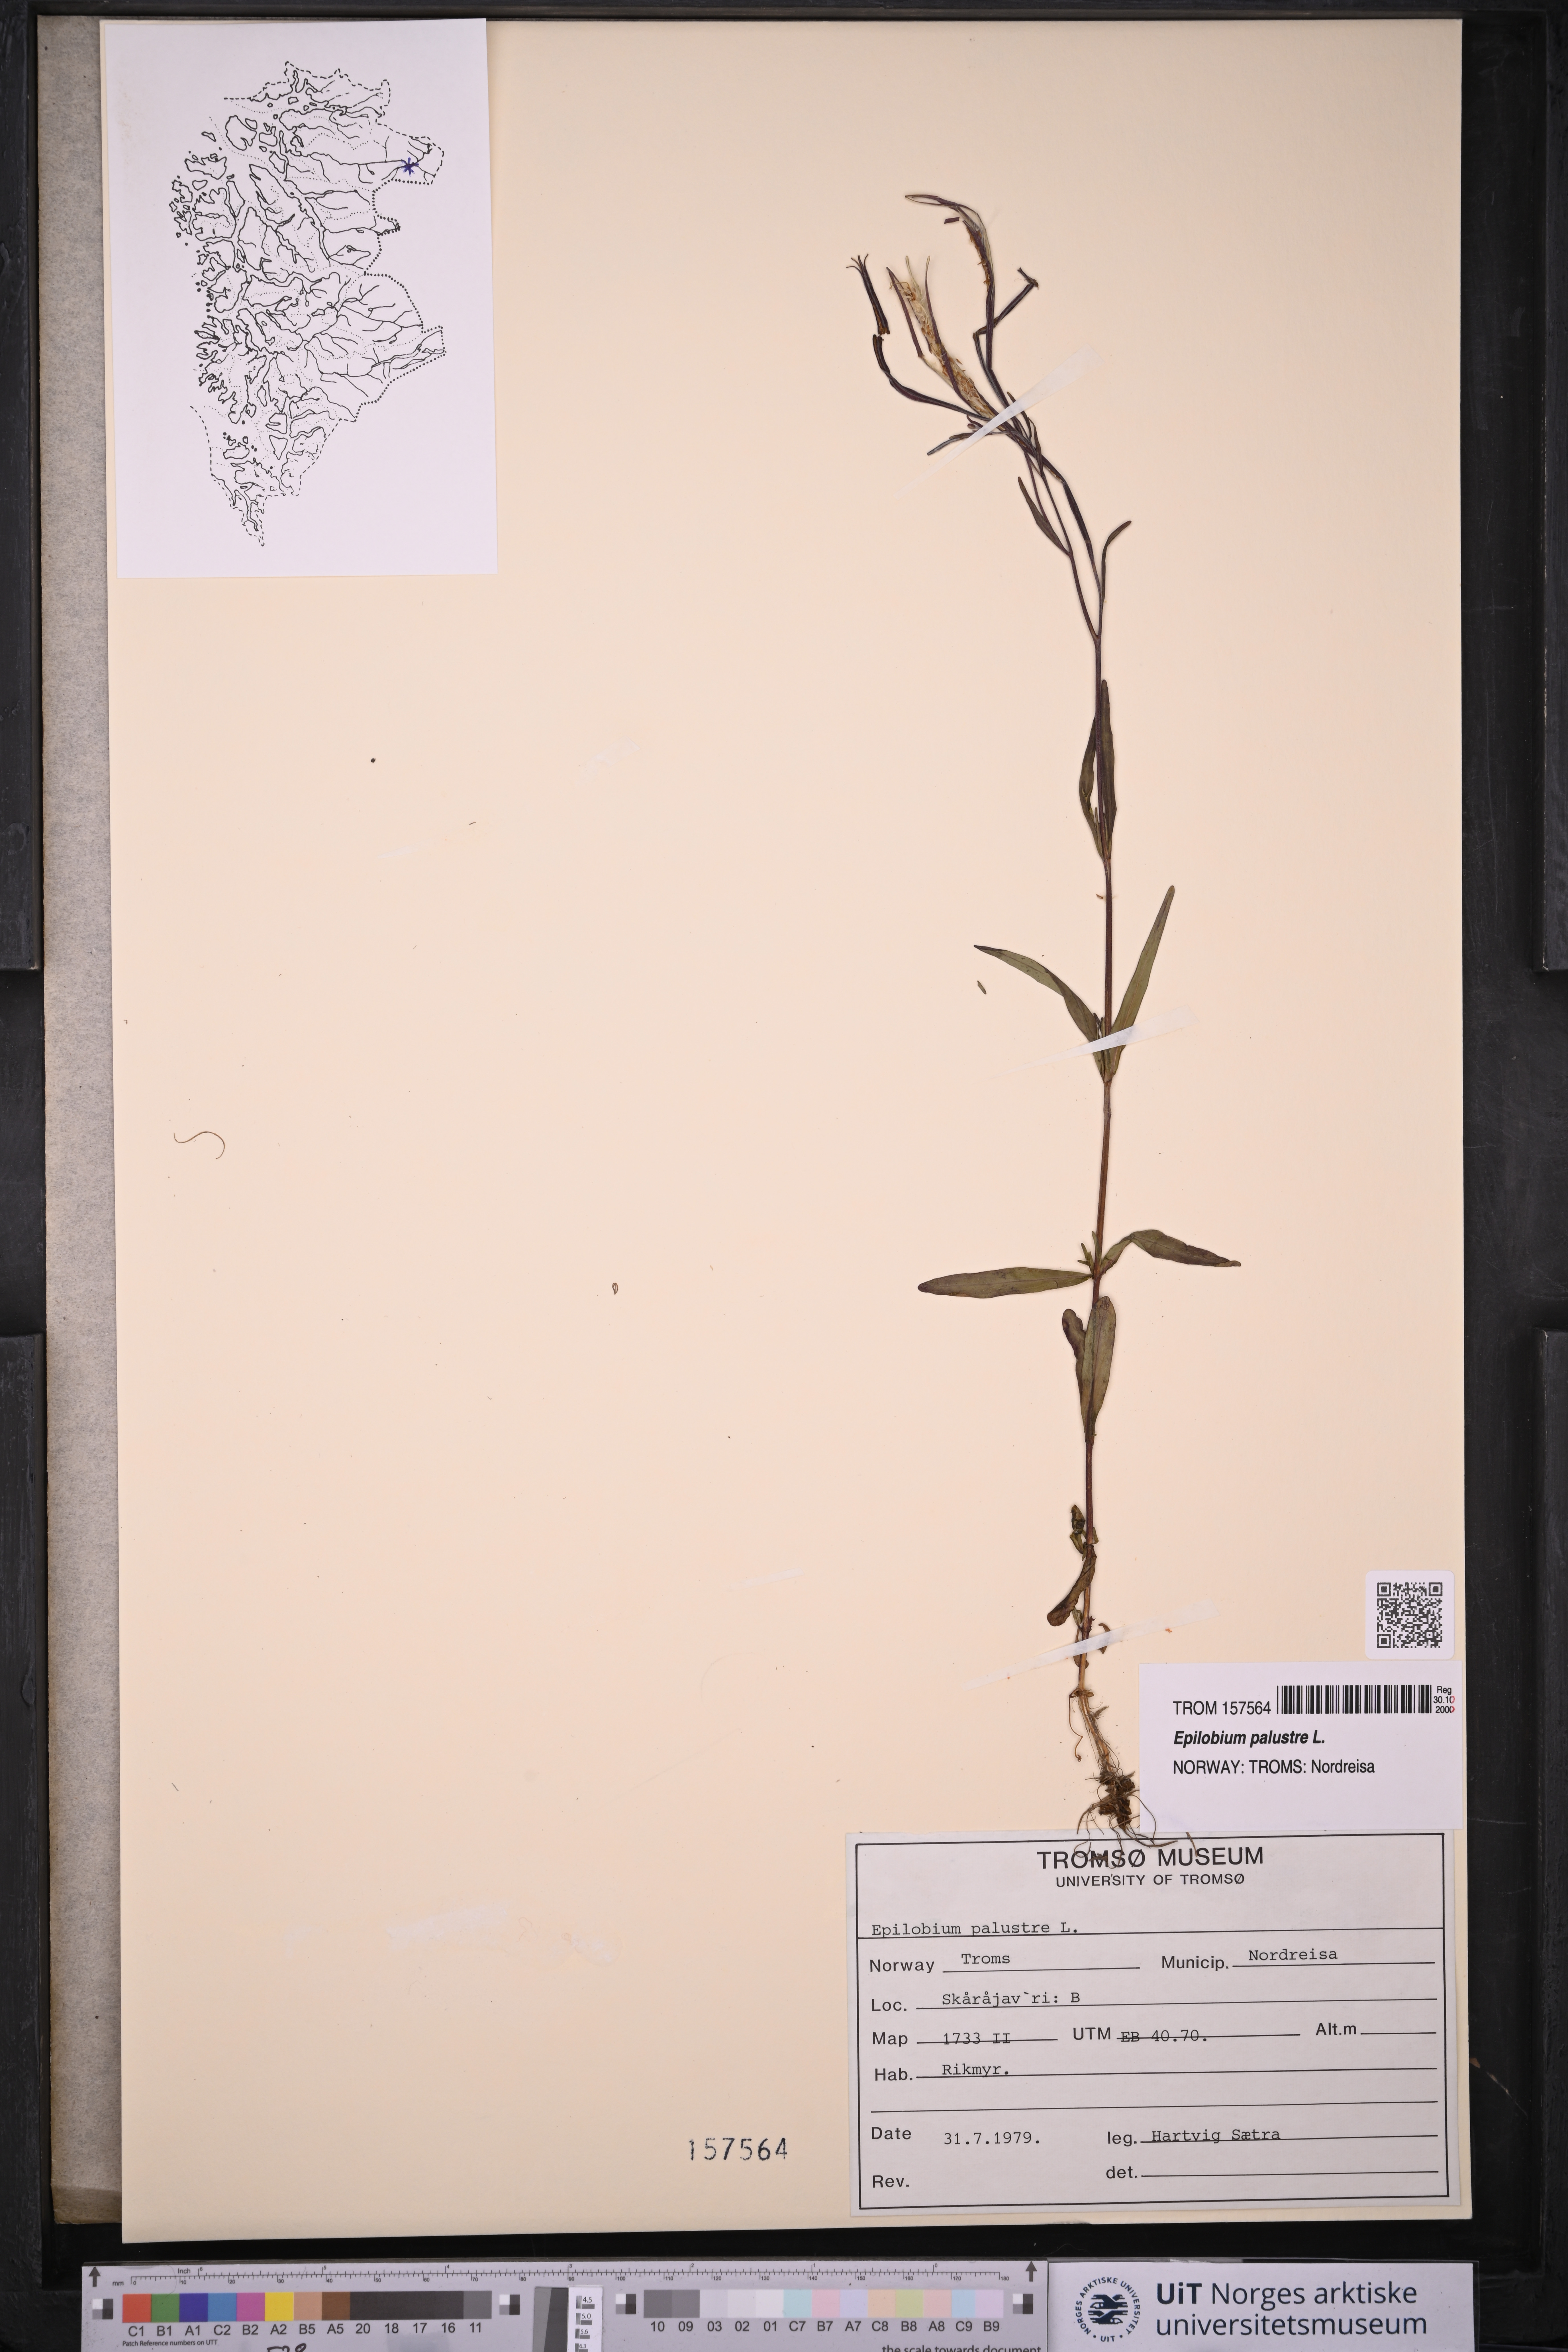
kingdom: Plantae
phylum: Tracheophyta
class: Magnoliopsida
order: Myrtales
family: Onagraceae
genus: Epilobium
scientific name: Epilobium palustre
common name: Marsh willowherb
